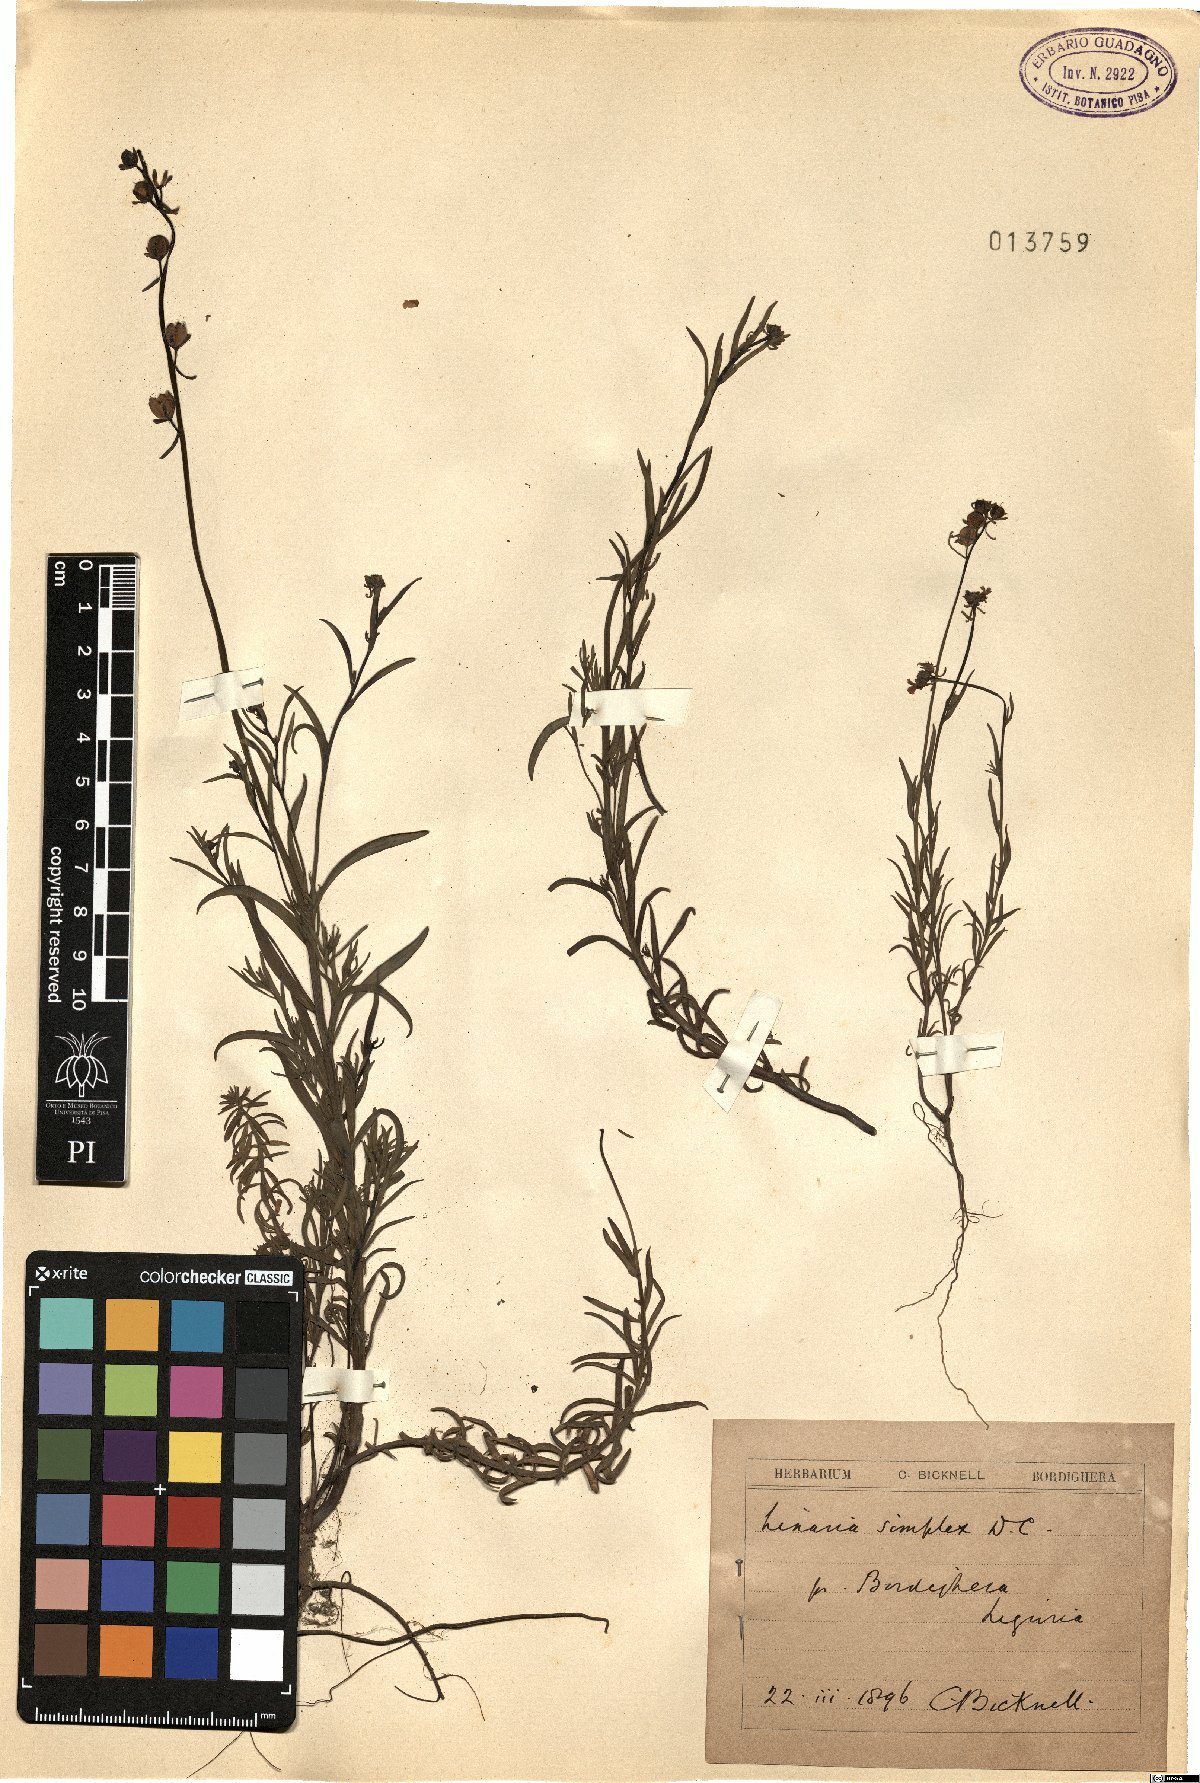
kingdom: Plantae
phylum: Tracheophyta
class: Magnoliopsida
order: Lamiales
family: Plantaginaceae
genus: Linaria
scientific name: Linaria simplex
